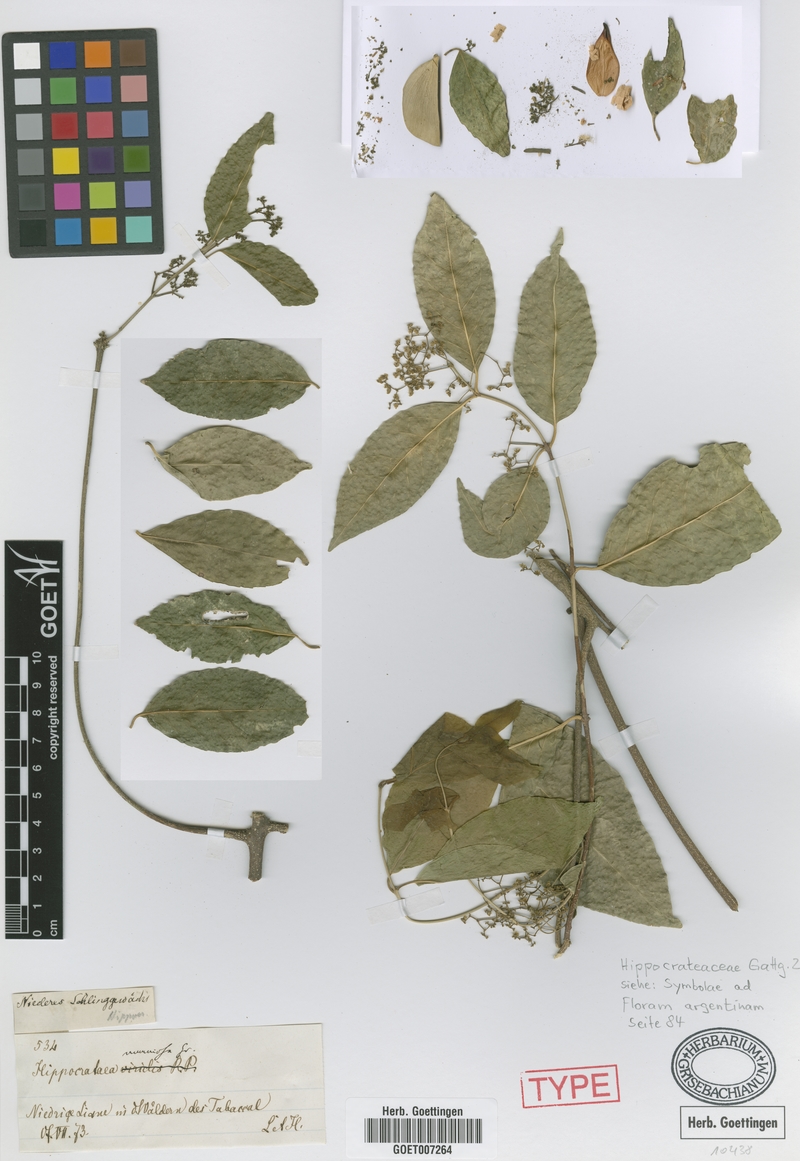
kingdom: Plantae
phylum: Tracheophyta
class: Magnoliopsida
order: Celastrales
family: Celastraceae
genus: Pristimera
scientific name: Pristimera celastroides
